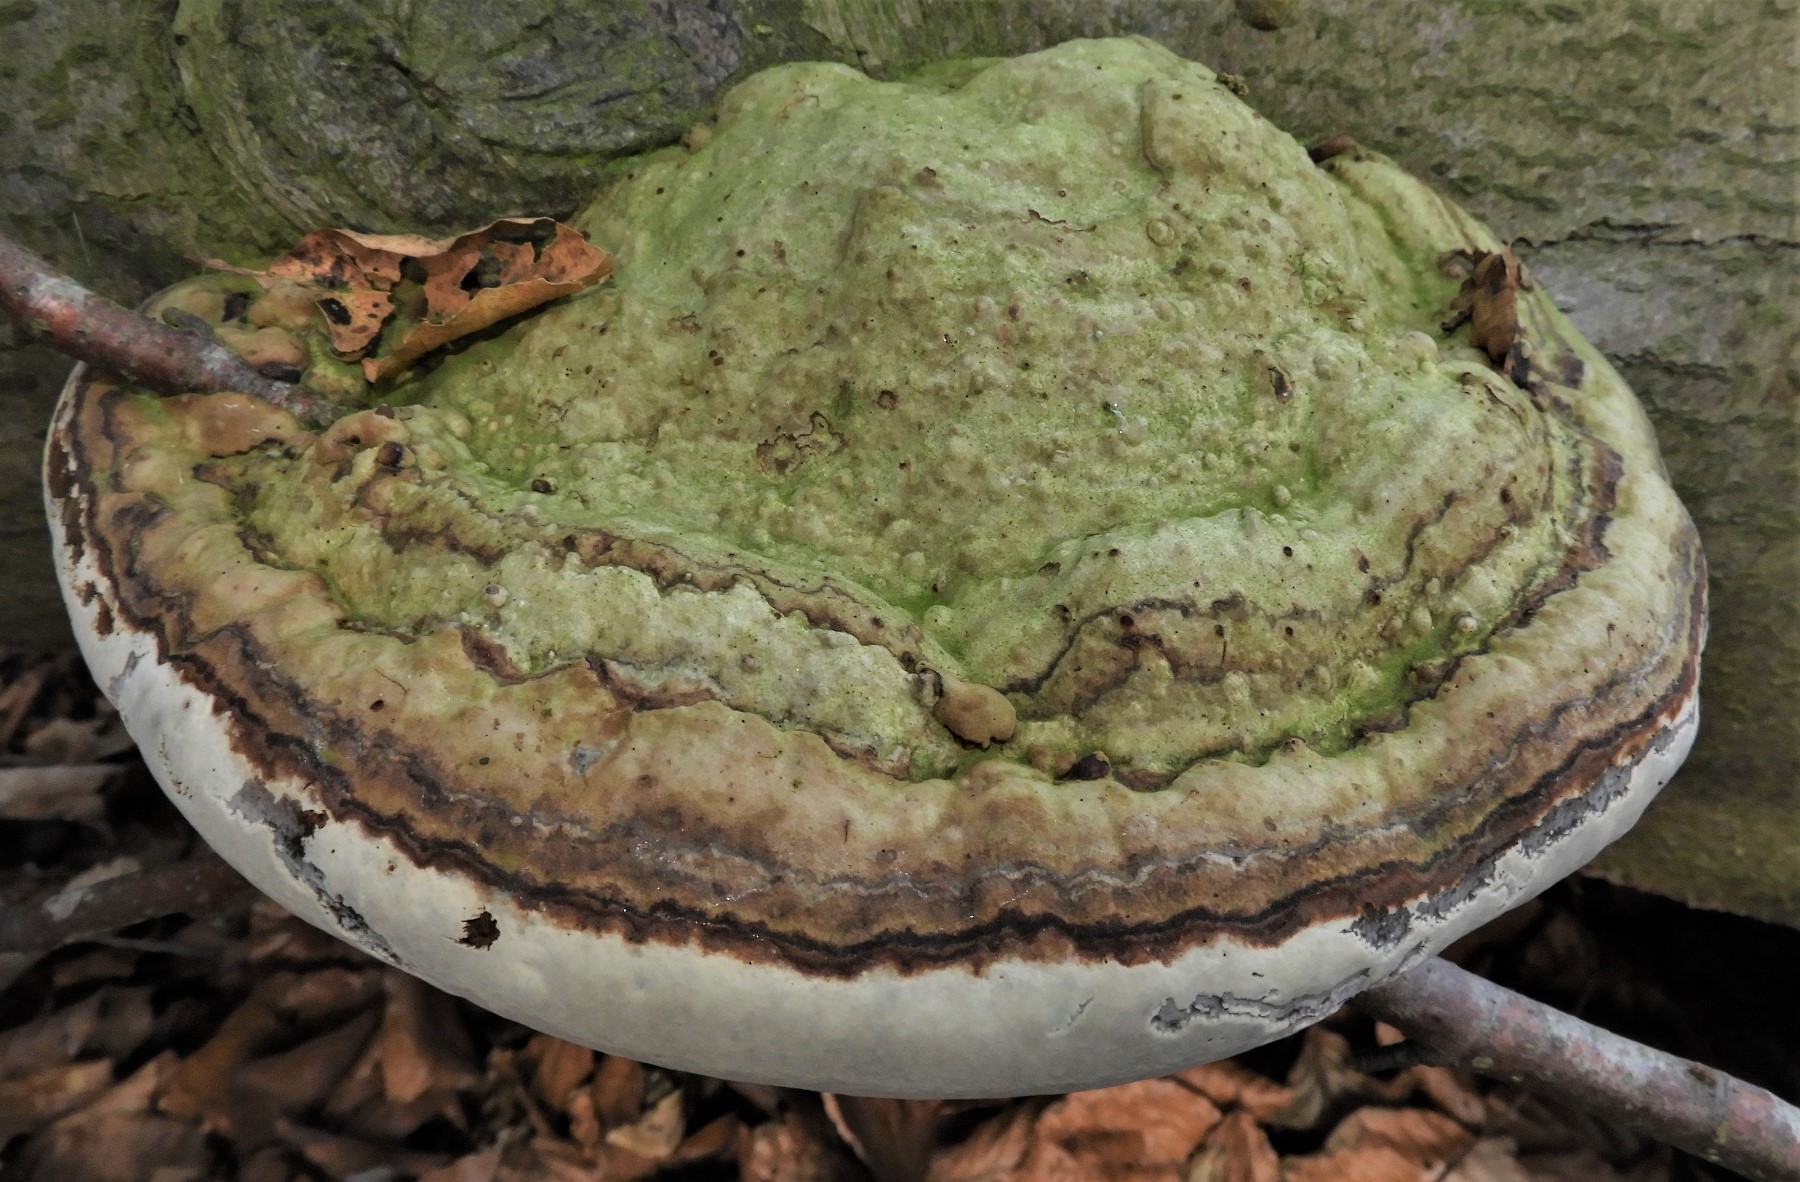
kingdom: Fungi
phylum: Basidiomycota
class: Agaricomycetes
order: Polyporales
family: Polyporaceae
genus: Fomes
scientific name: Fomes fomentarius
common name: tøndersvamp
